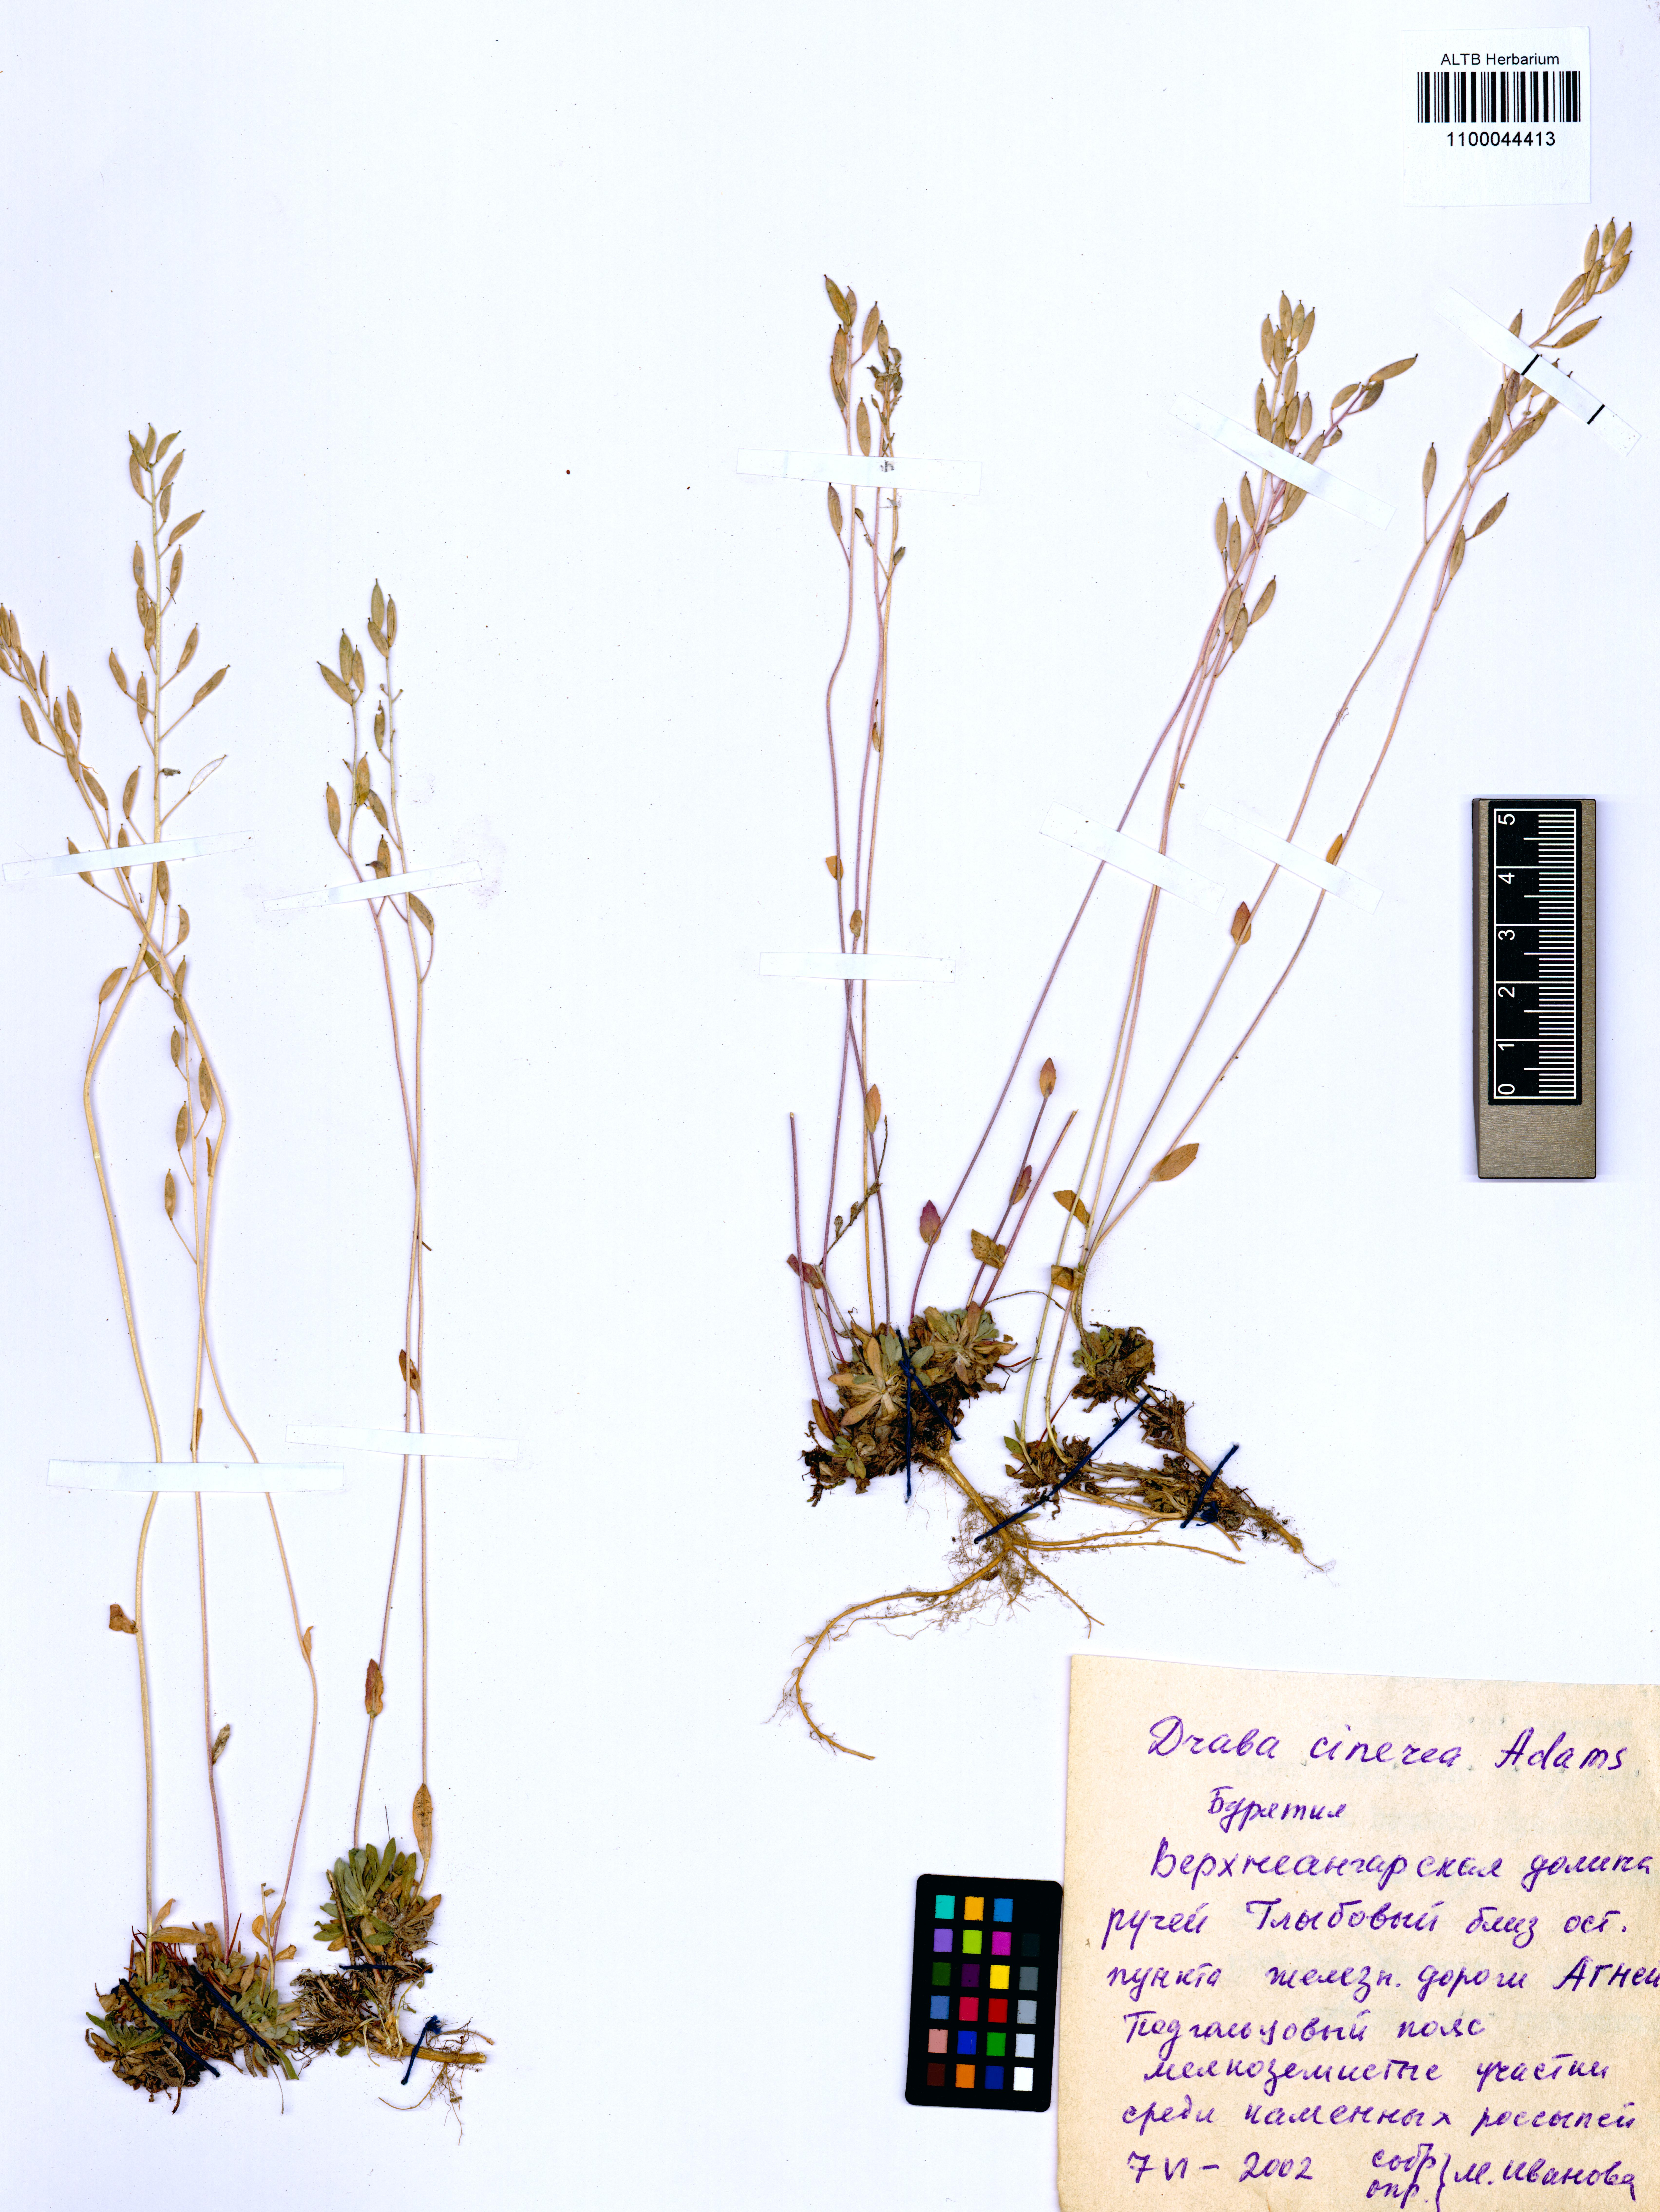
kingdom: Plantae
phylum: Tracheophyta
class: Magnoliopsida
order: Brassicales
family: Brassicaceae
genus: Draba
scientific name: Draba cinerea
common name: Ash-coloured whitlow-grass
